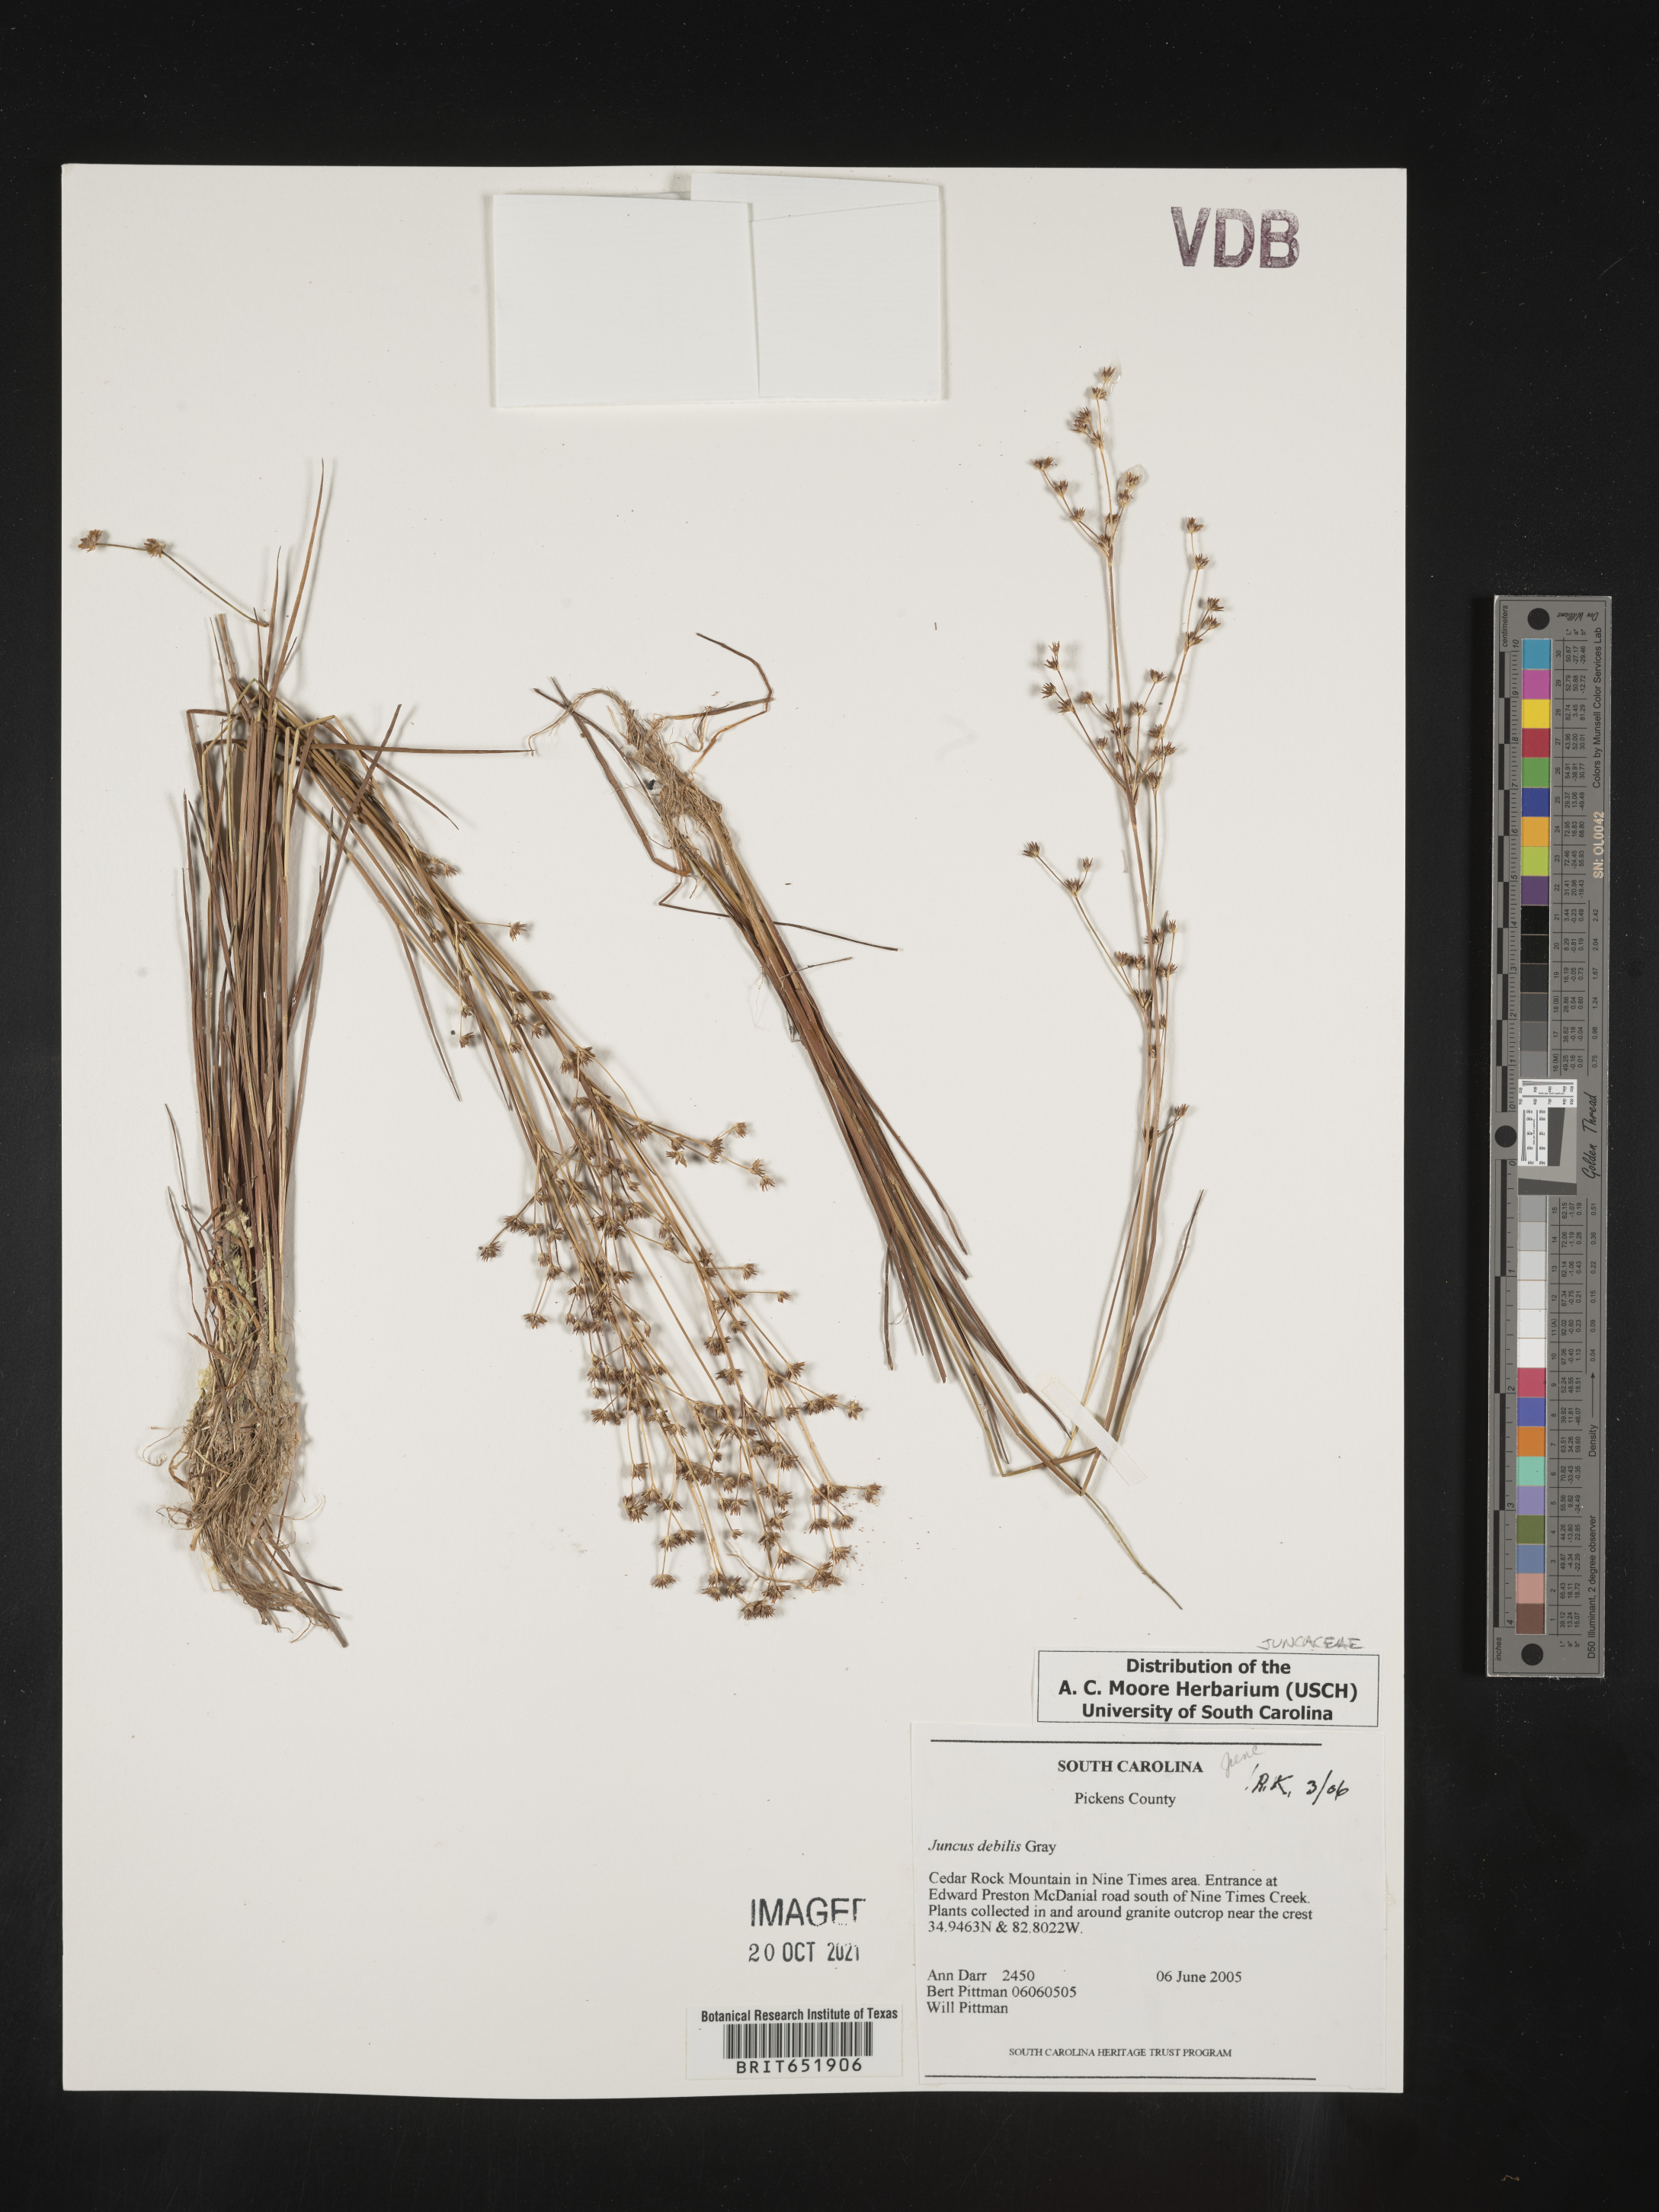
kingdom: Plantae
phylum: Tracheophyta
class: Liliopsida
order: Poales
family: Juncaceae
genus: Juncus
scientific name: Juncus debilis
